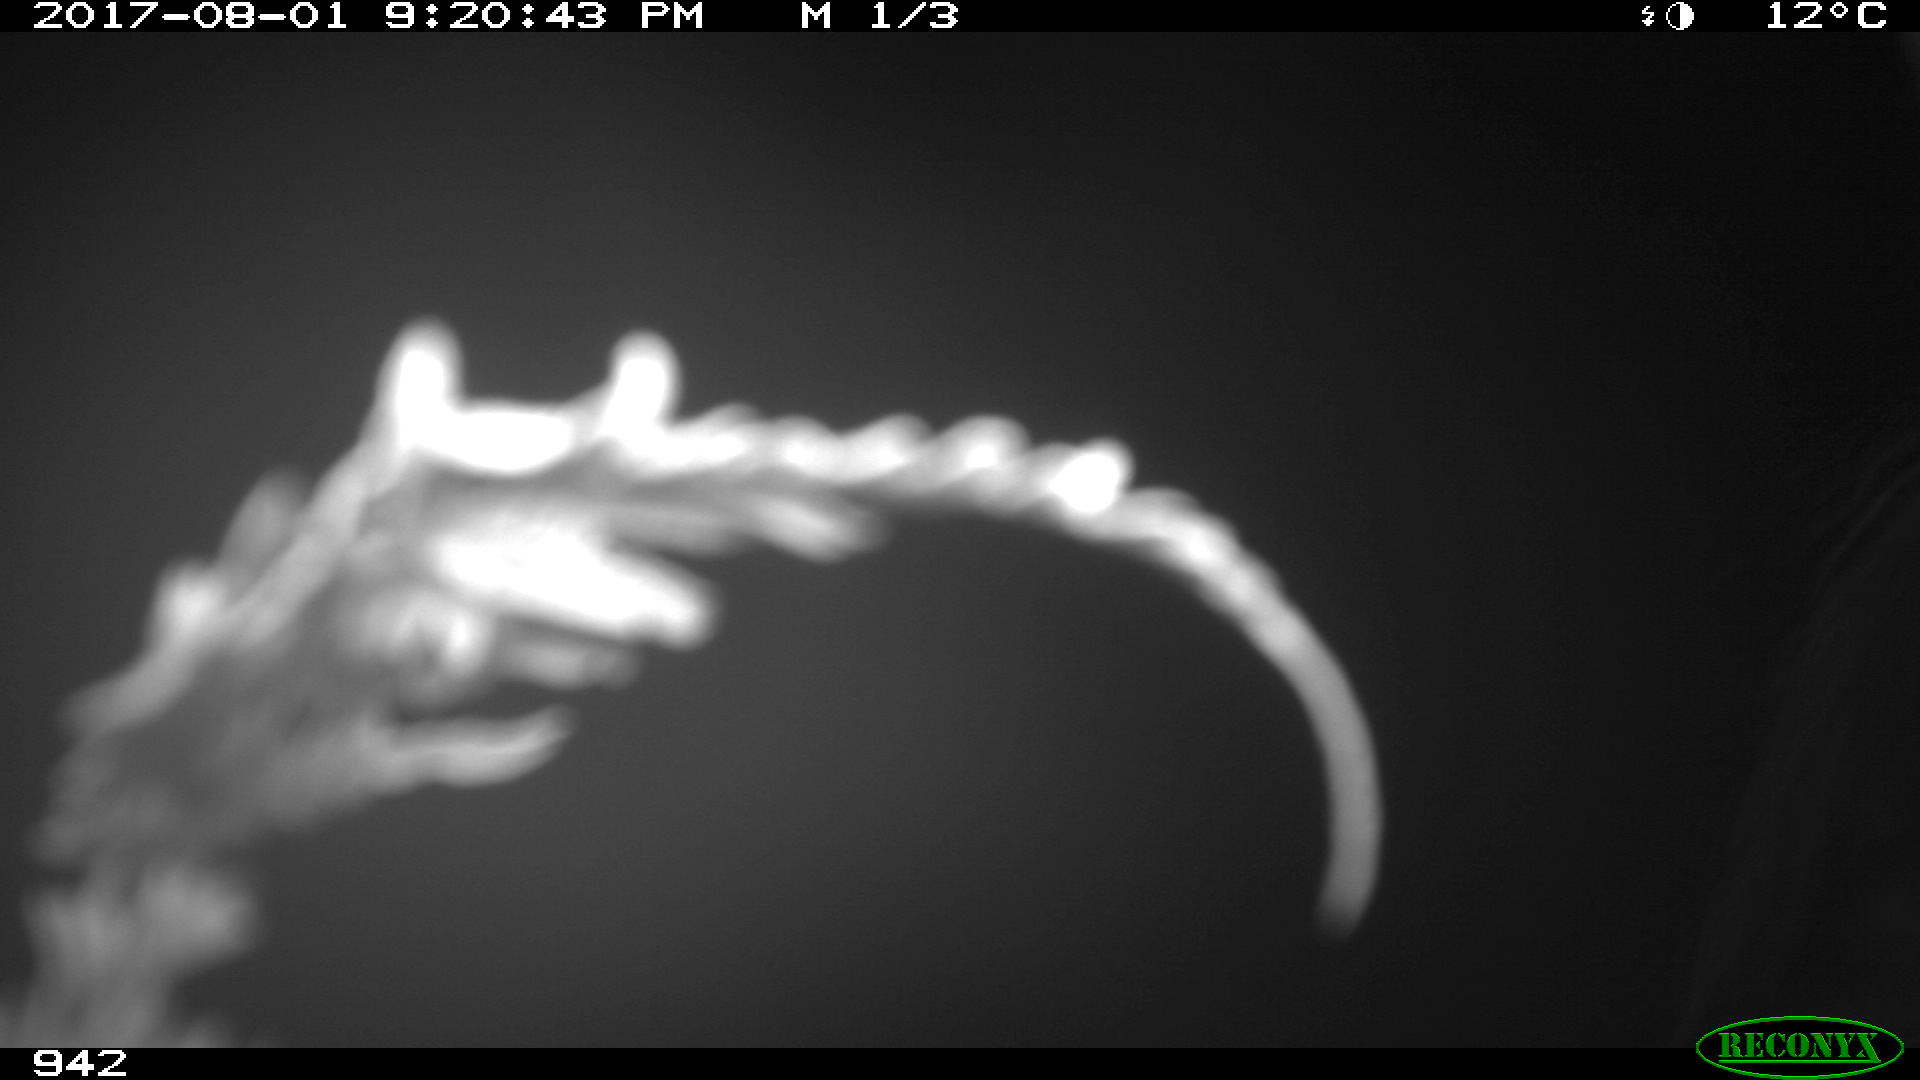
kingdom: Animalia
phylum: Chordata
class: Mammalia
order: Perissodactyla
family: Equidae
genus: Equus
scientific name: Equus caballus
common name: Horse
